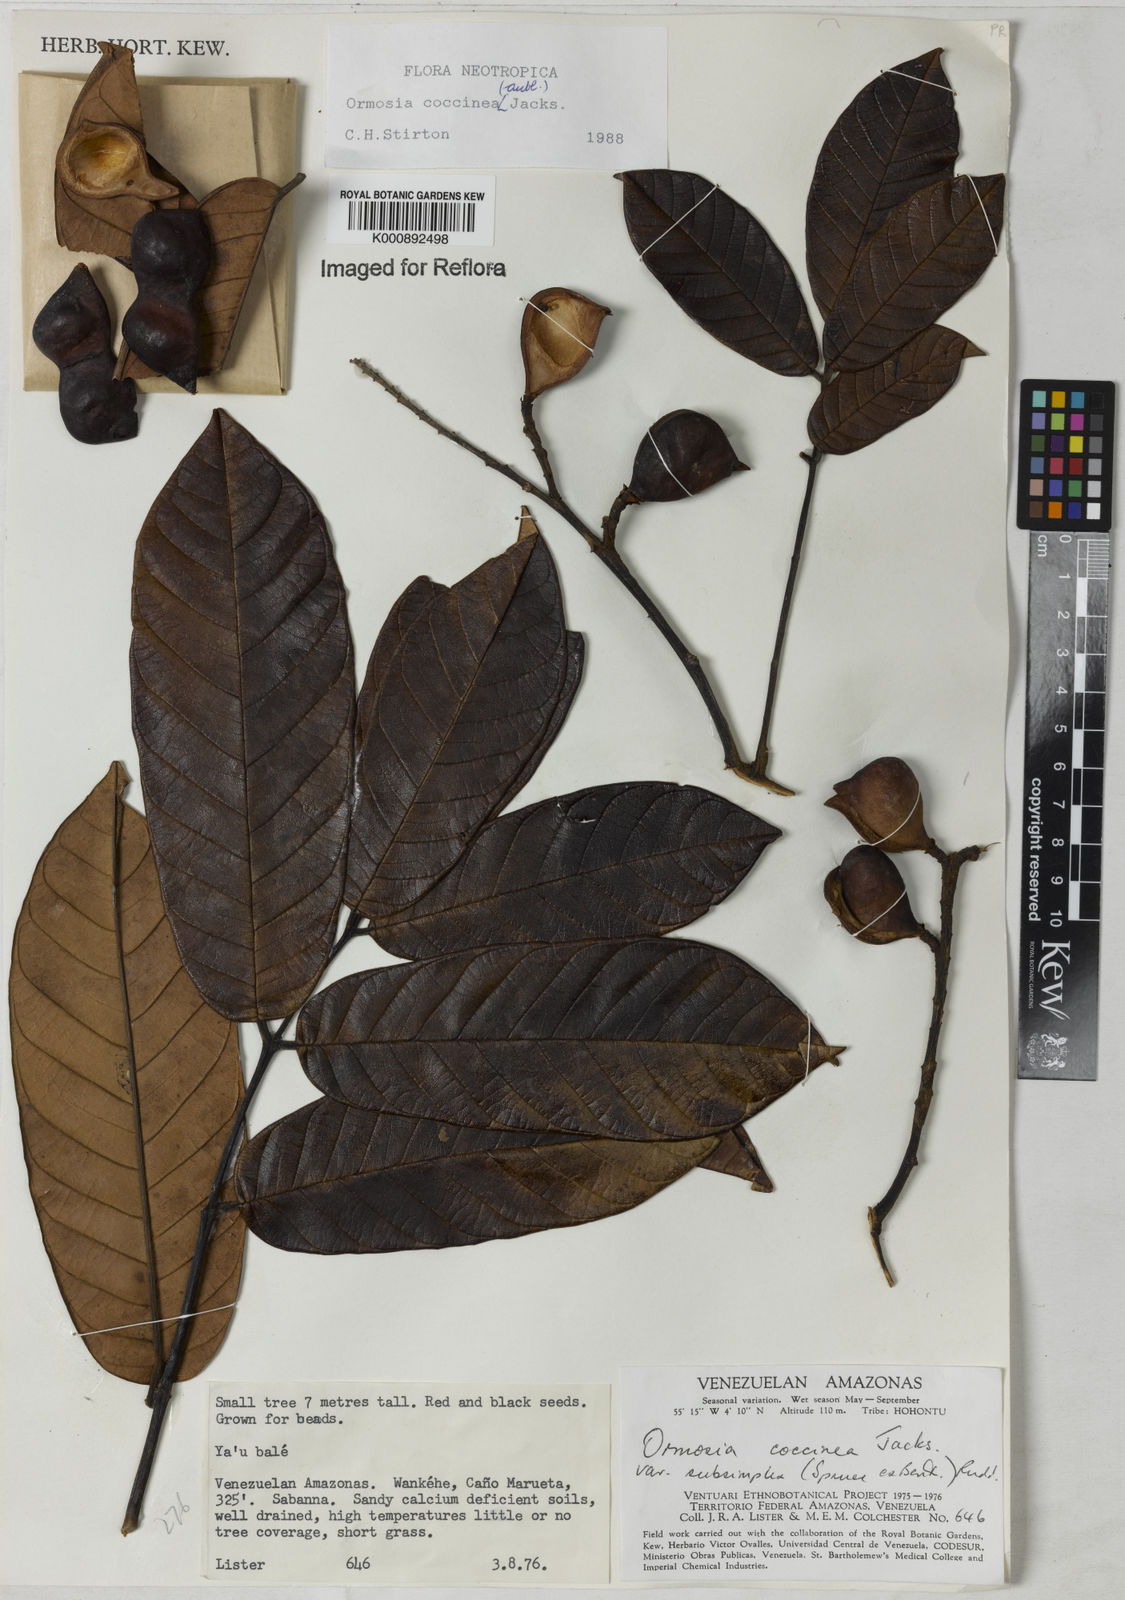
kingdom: Plantae
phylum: Tracheophyta
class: Magnoliopsida
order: Fabales
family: Fabaceae
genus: Ormosia
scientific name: Ormosia coccinea
